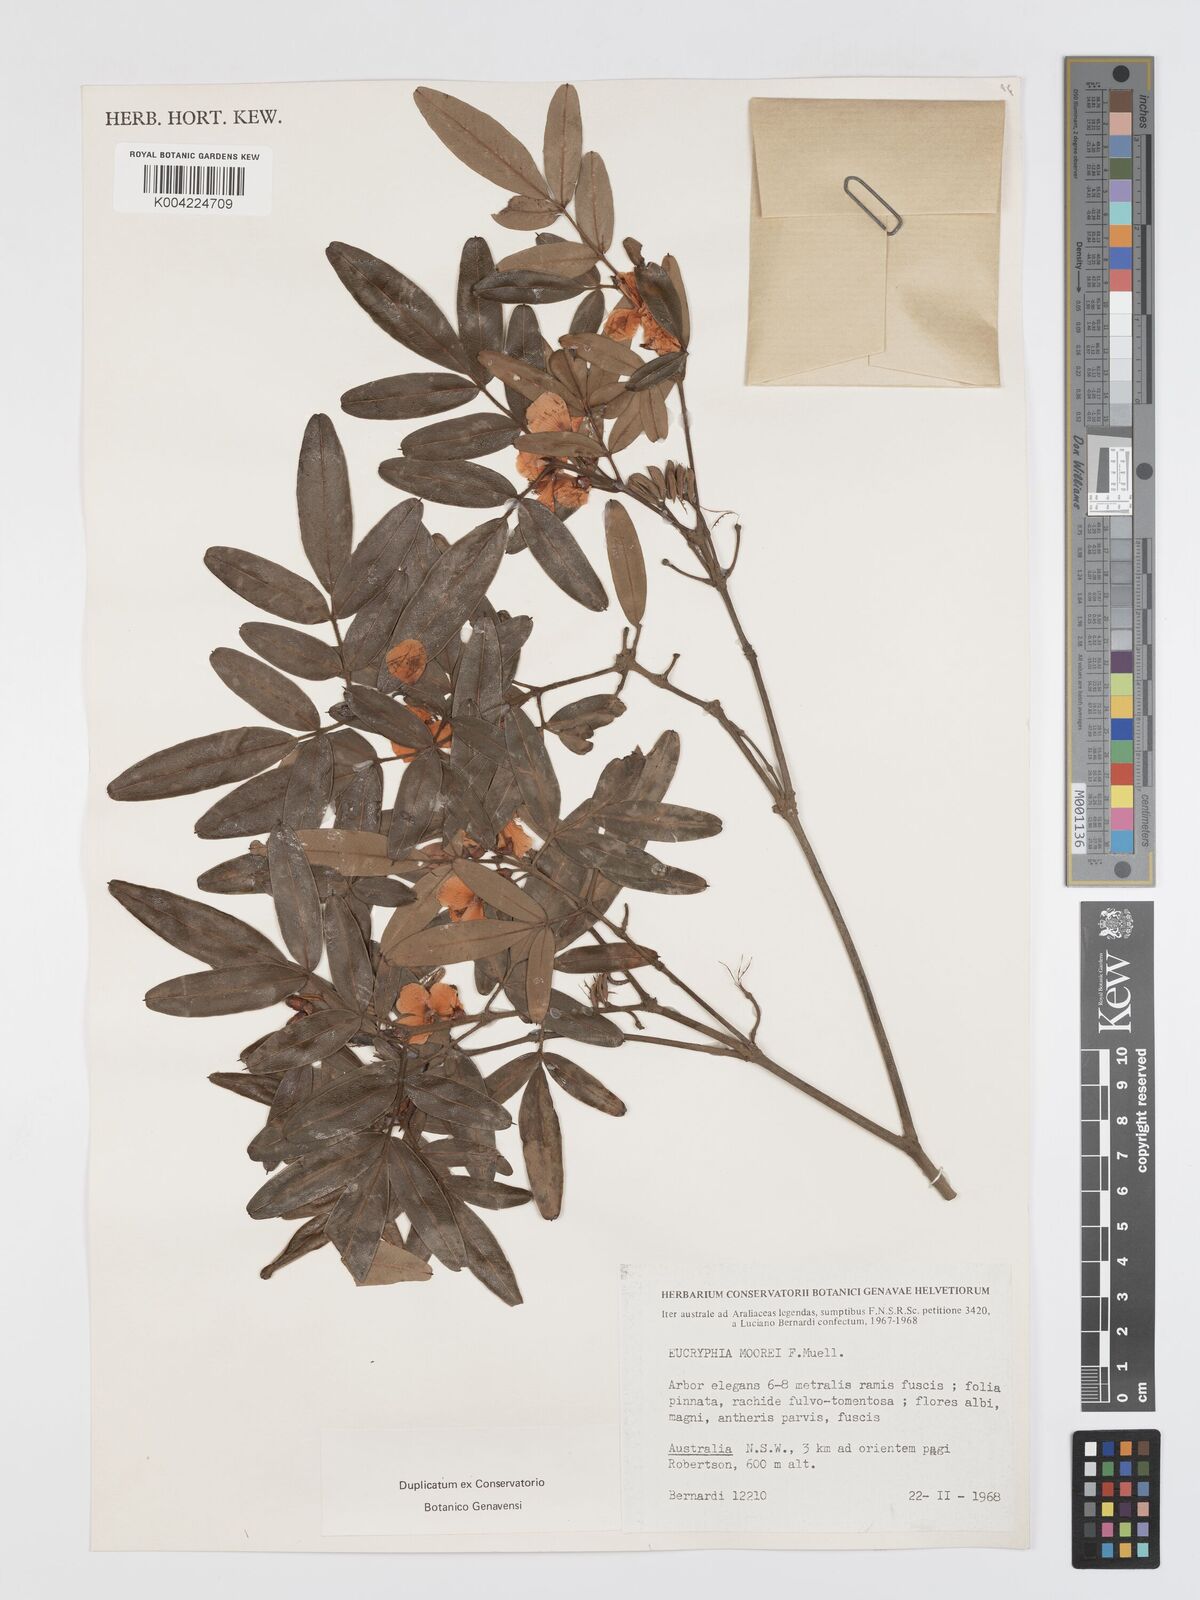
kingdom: Plantae
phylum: Tracheophyta
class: Magnoliopsida
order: Oxalidales
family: Cunoniaceae
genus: Eucryphia
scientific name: Eucryphia moorei
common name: Acacia-plum
